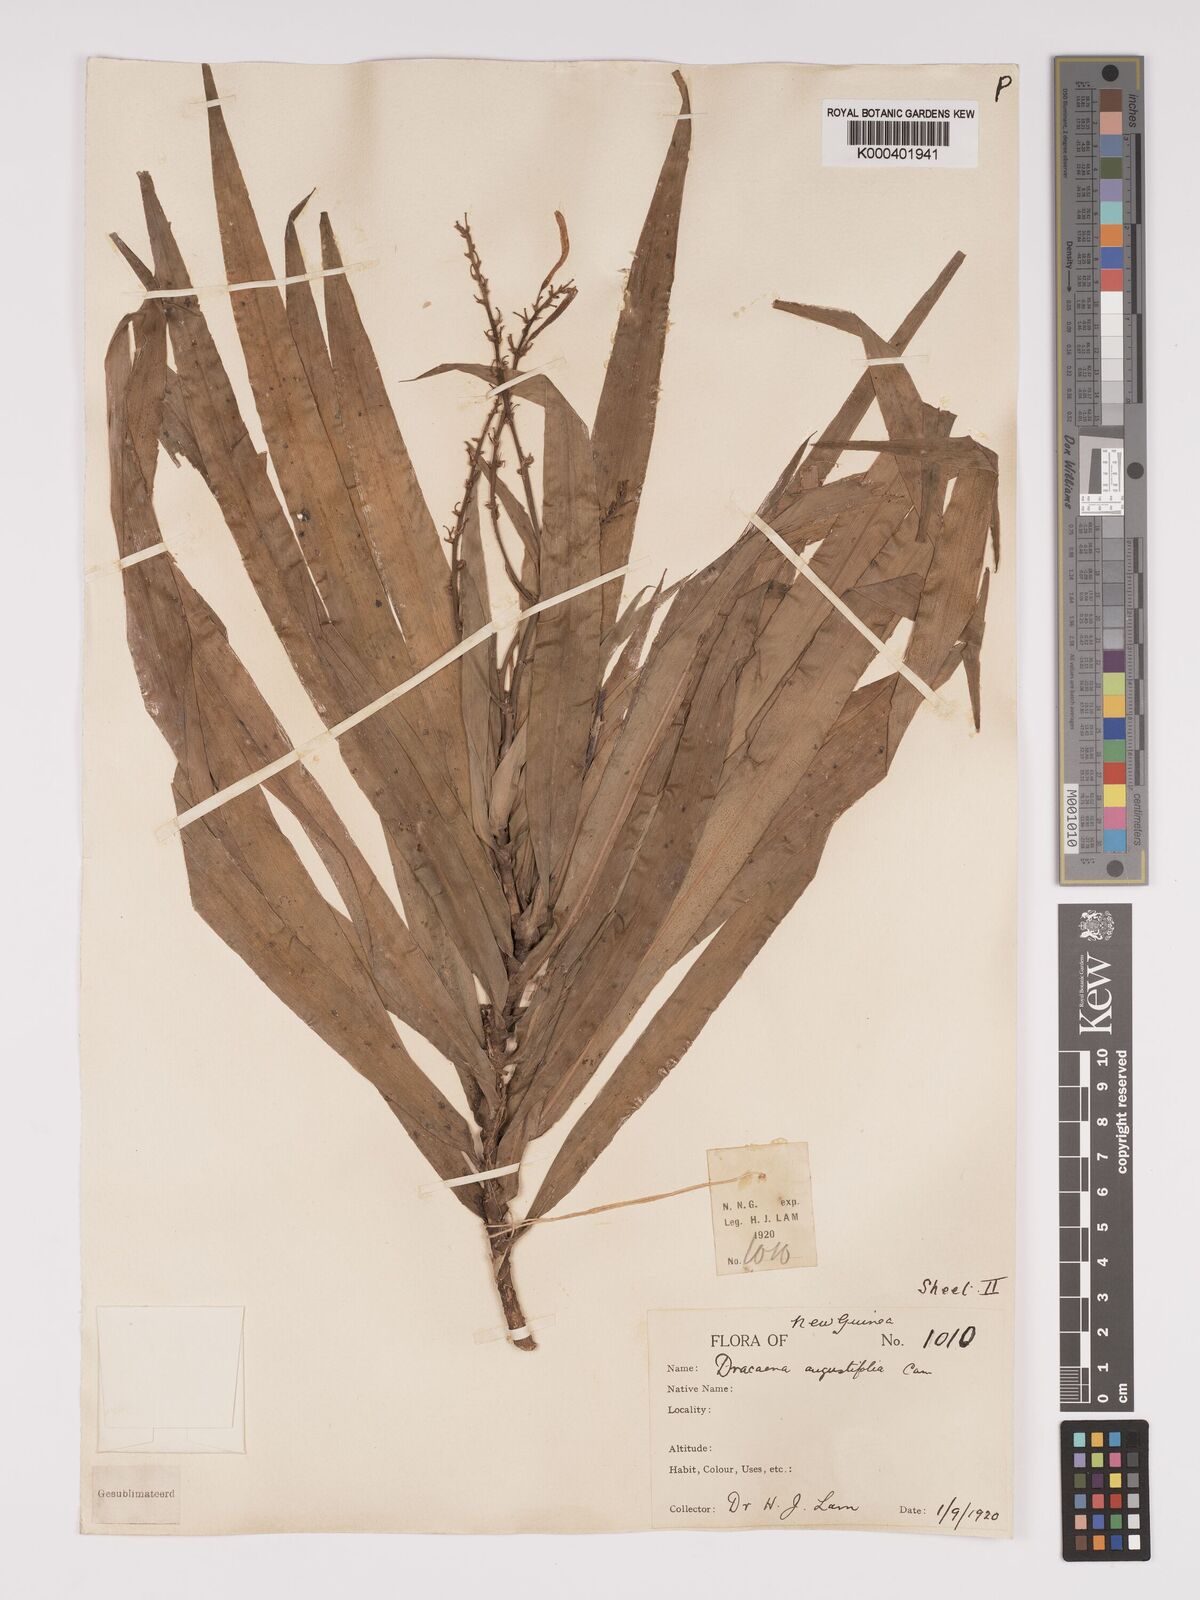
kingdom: Plantae
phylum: Tracheophyta
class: Liliopsida
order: Asparagales
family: Asparagaceae
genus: Dracaena
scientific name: Dracaena angustifolia
